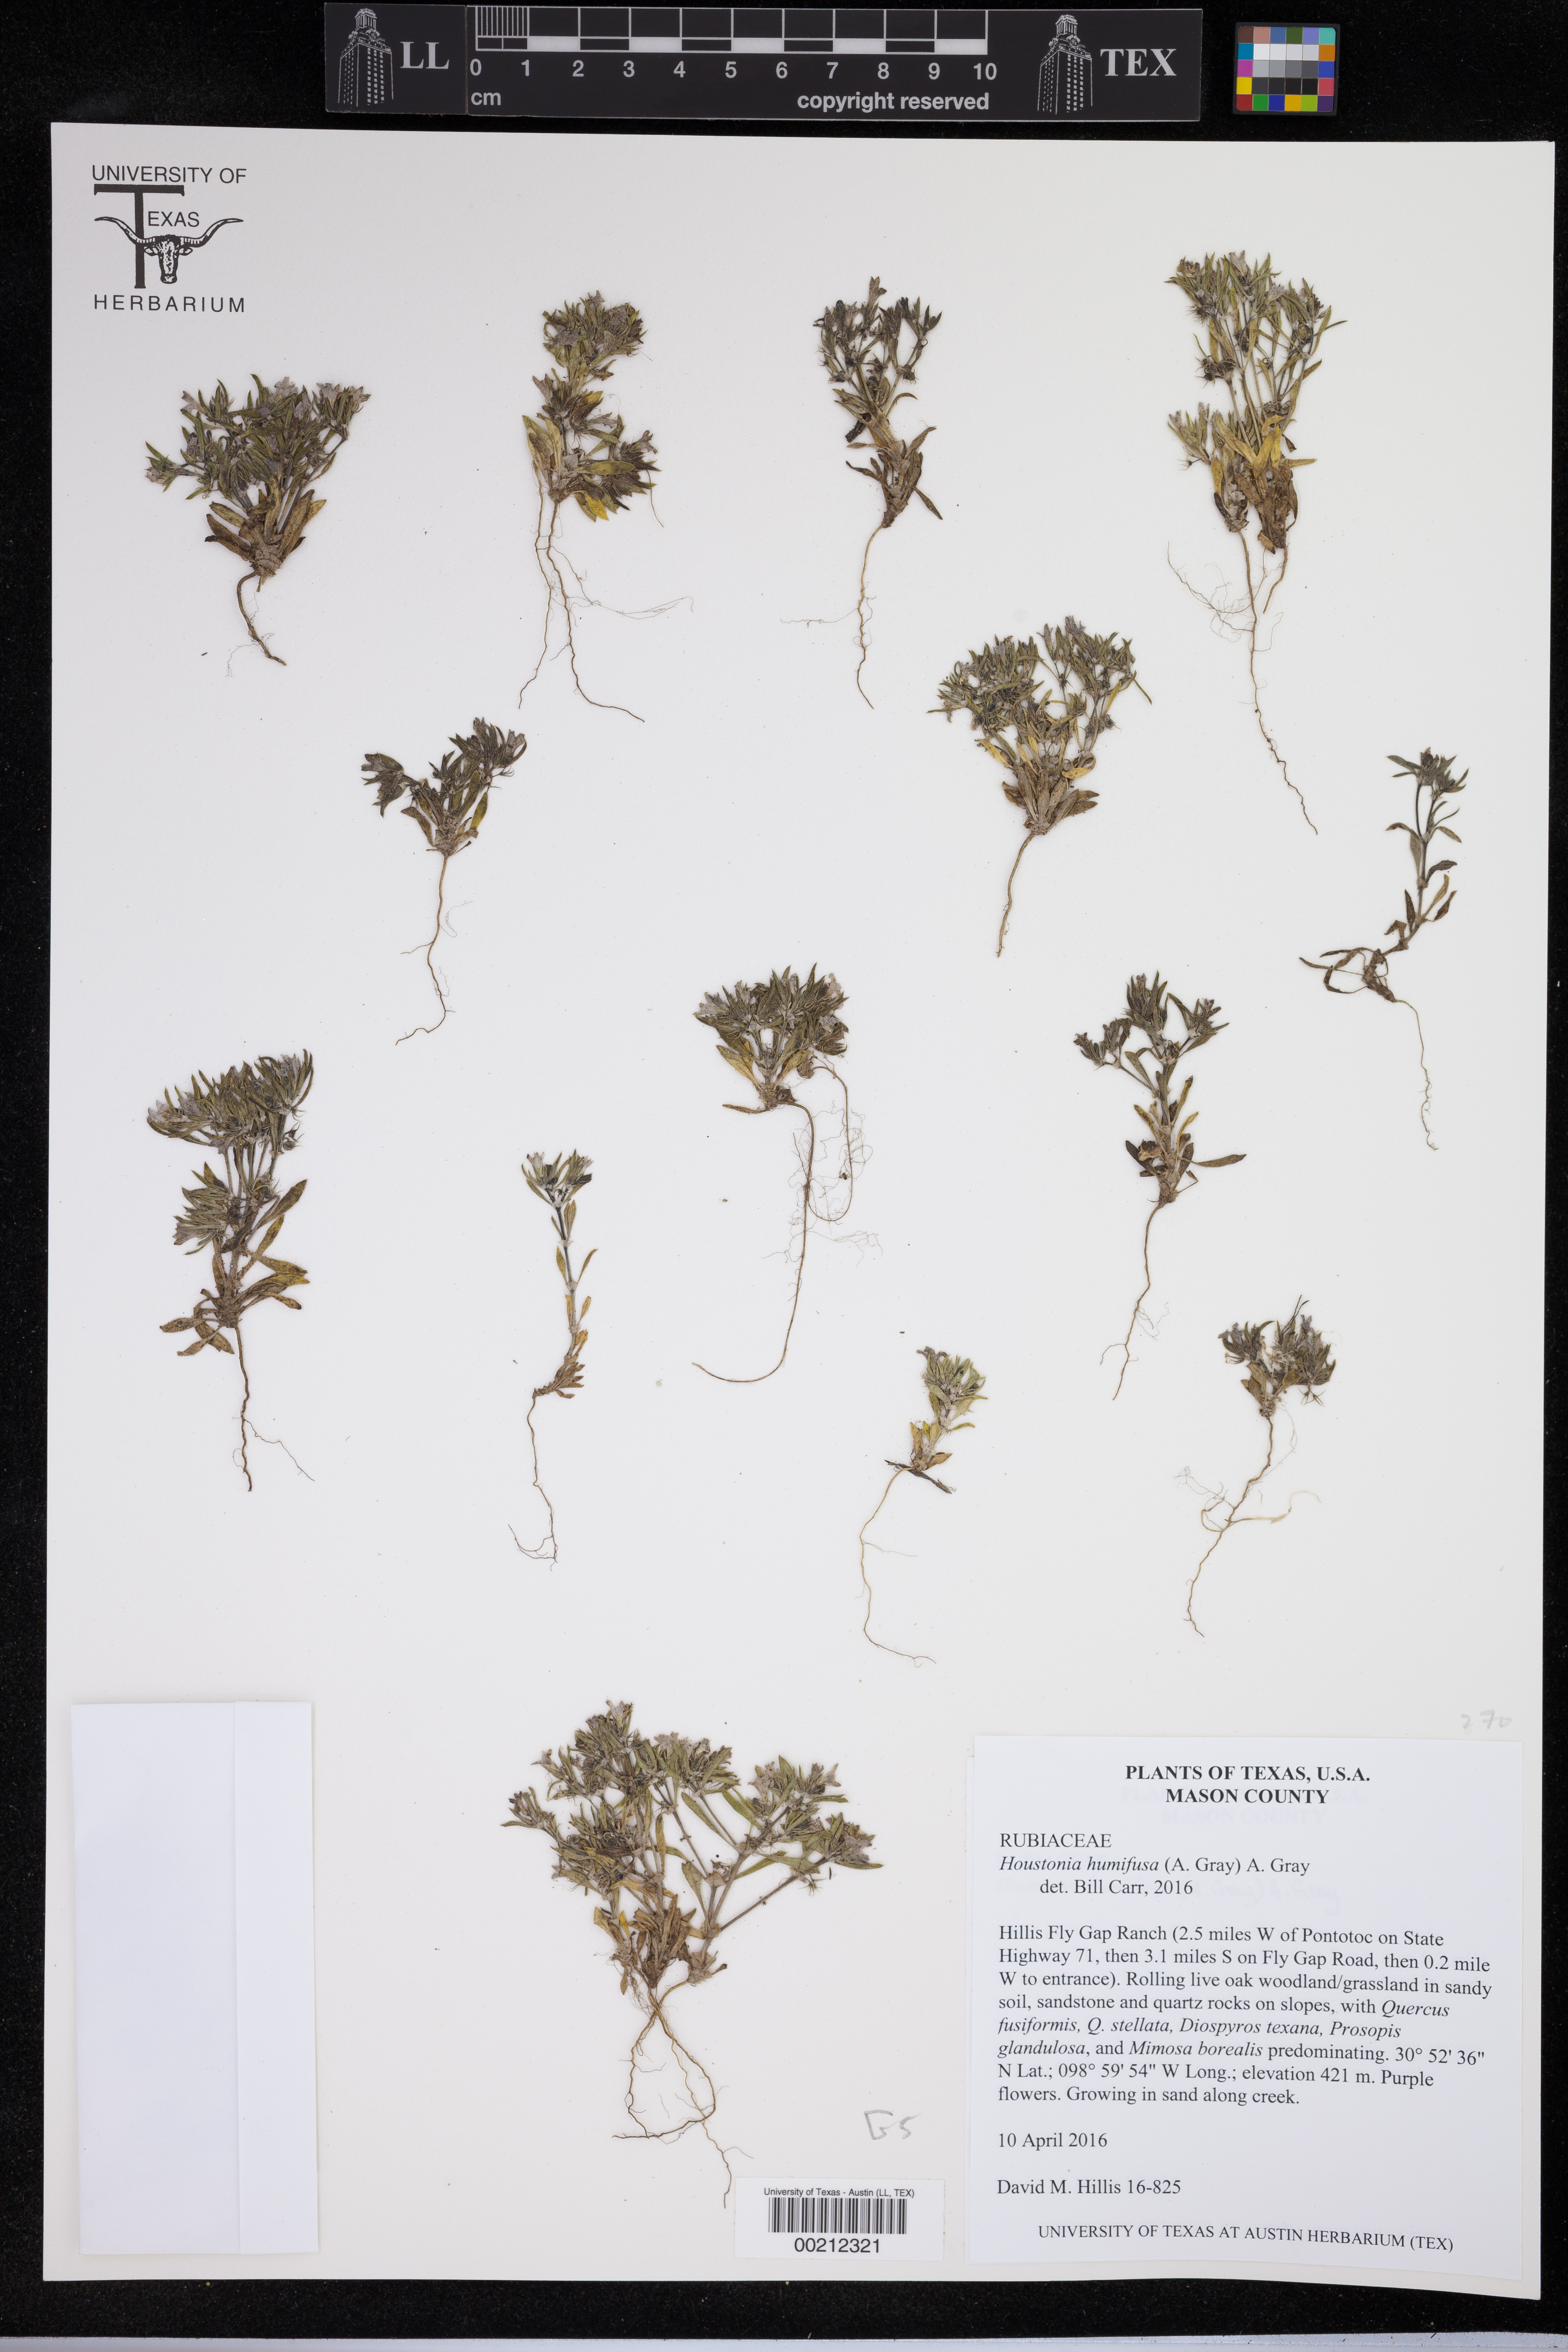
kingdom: Plantae
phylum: Tracheophyta
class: Pinopsida
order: Pinales
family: Pinaceae
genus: Cedrus
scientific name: Cedrus atlantica
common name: Atlas cedar
